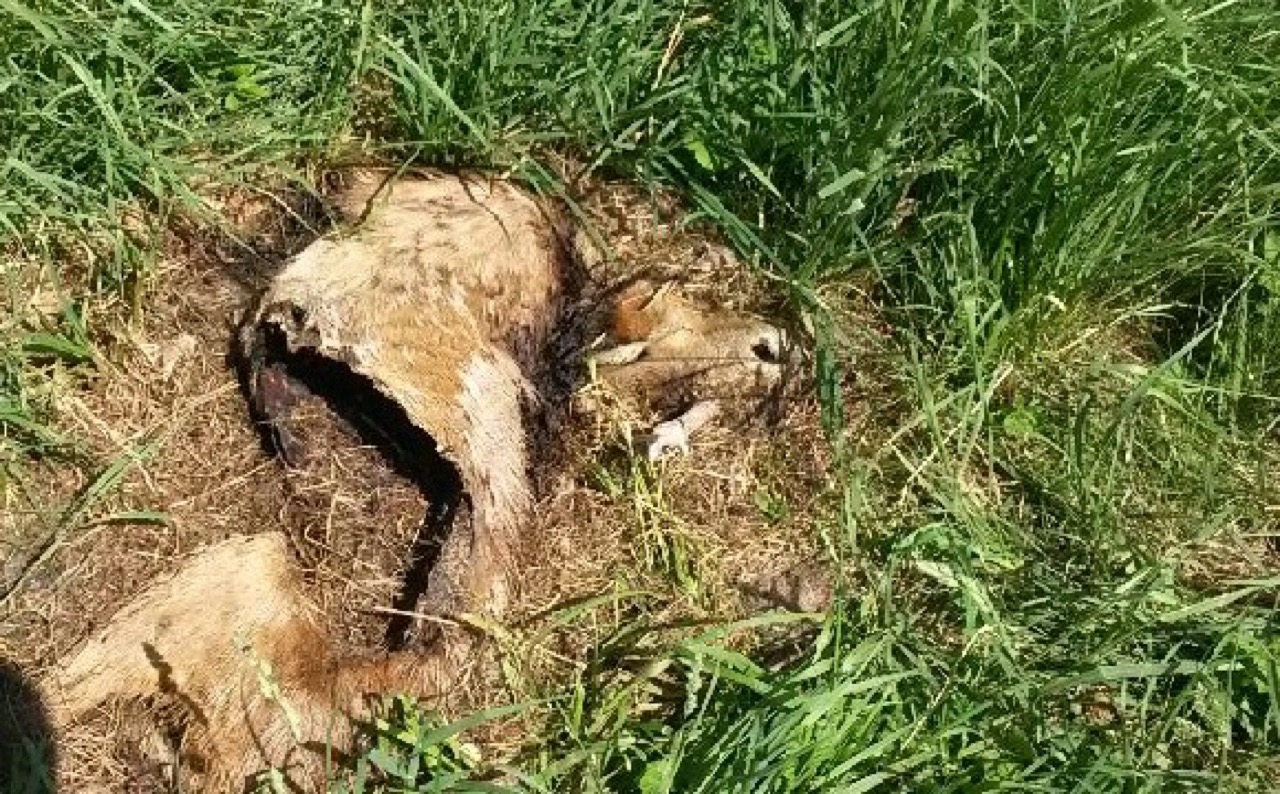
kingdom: Animalia
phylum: Chordata
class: Mammalia
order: Artiodactyla
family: Cervidae
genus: Capreolus
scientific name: Capreolus capreolus
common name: Western roe deer
